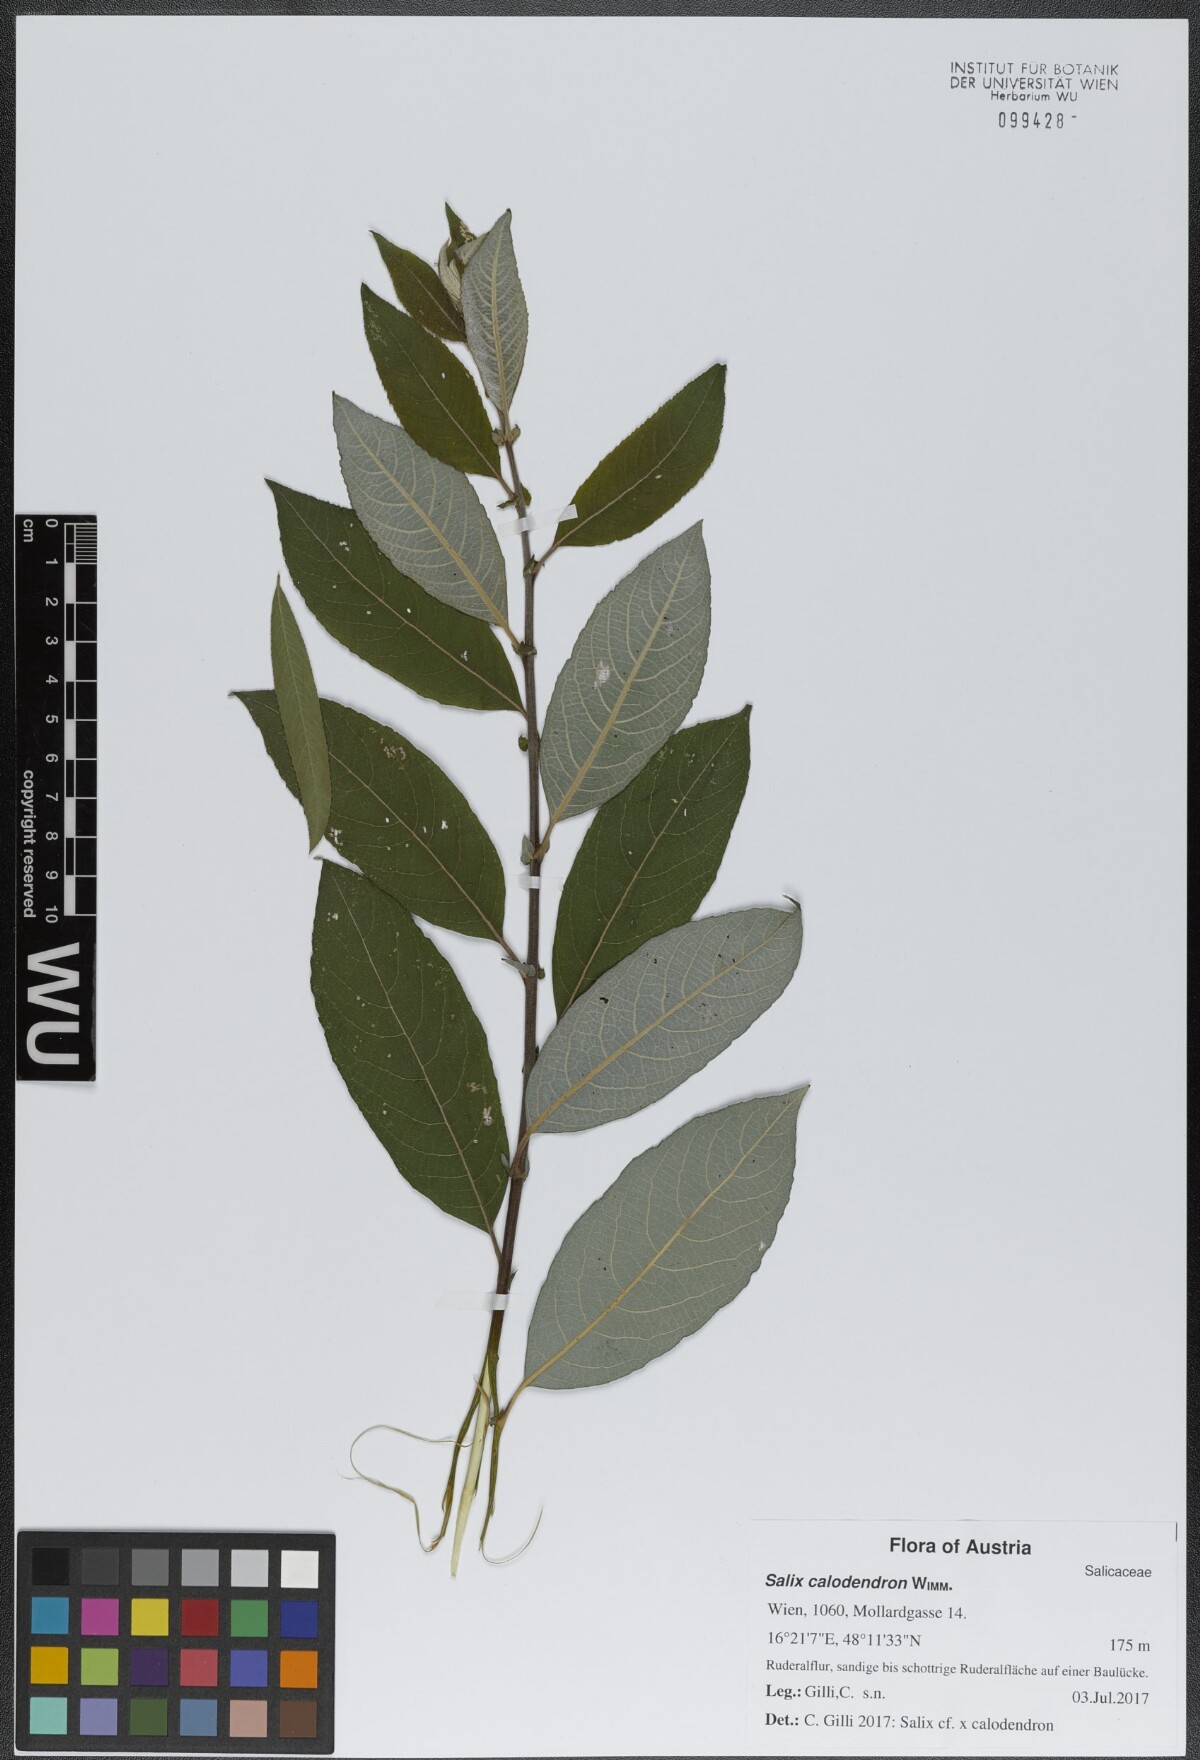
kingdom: Plantae
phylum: Tracheophyta
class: Magnoliopsida
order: Malpighiales
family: Salicaceae
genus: Salix
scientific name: Salix calodendron
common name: Holme willow
